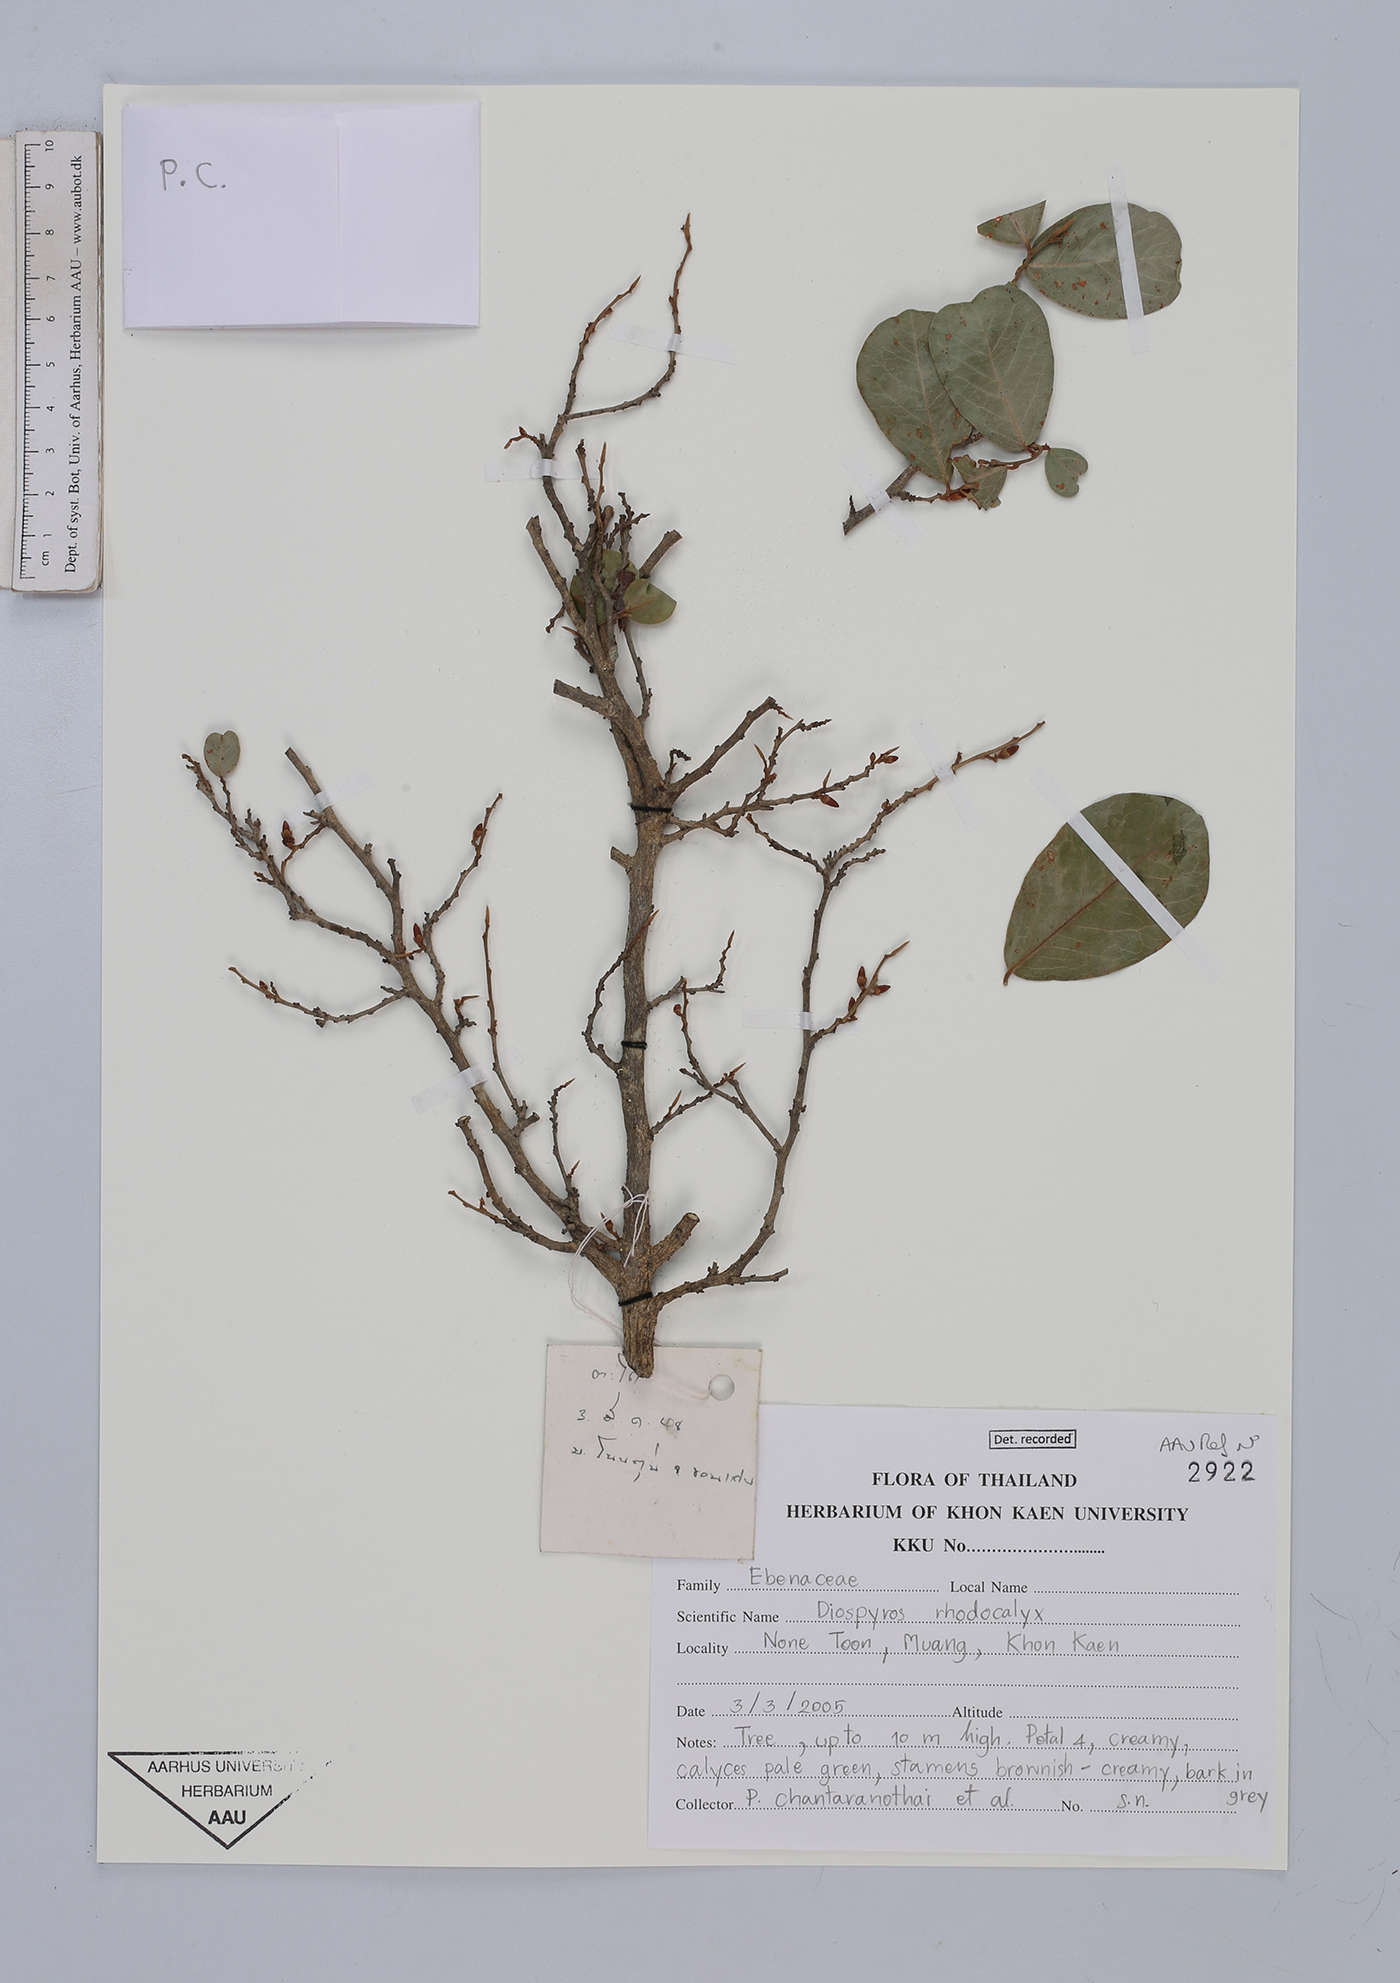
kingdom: Plantae
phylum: Tracheophyta
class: Magnoliopsida
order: Ericales
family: Ebenaceae
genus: Diospyros
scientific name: Diospyros rhodocalyx
